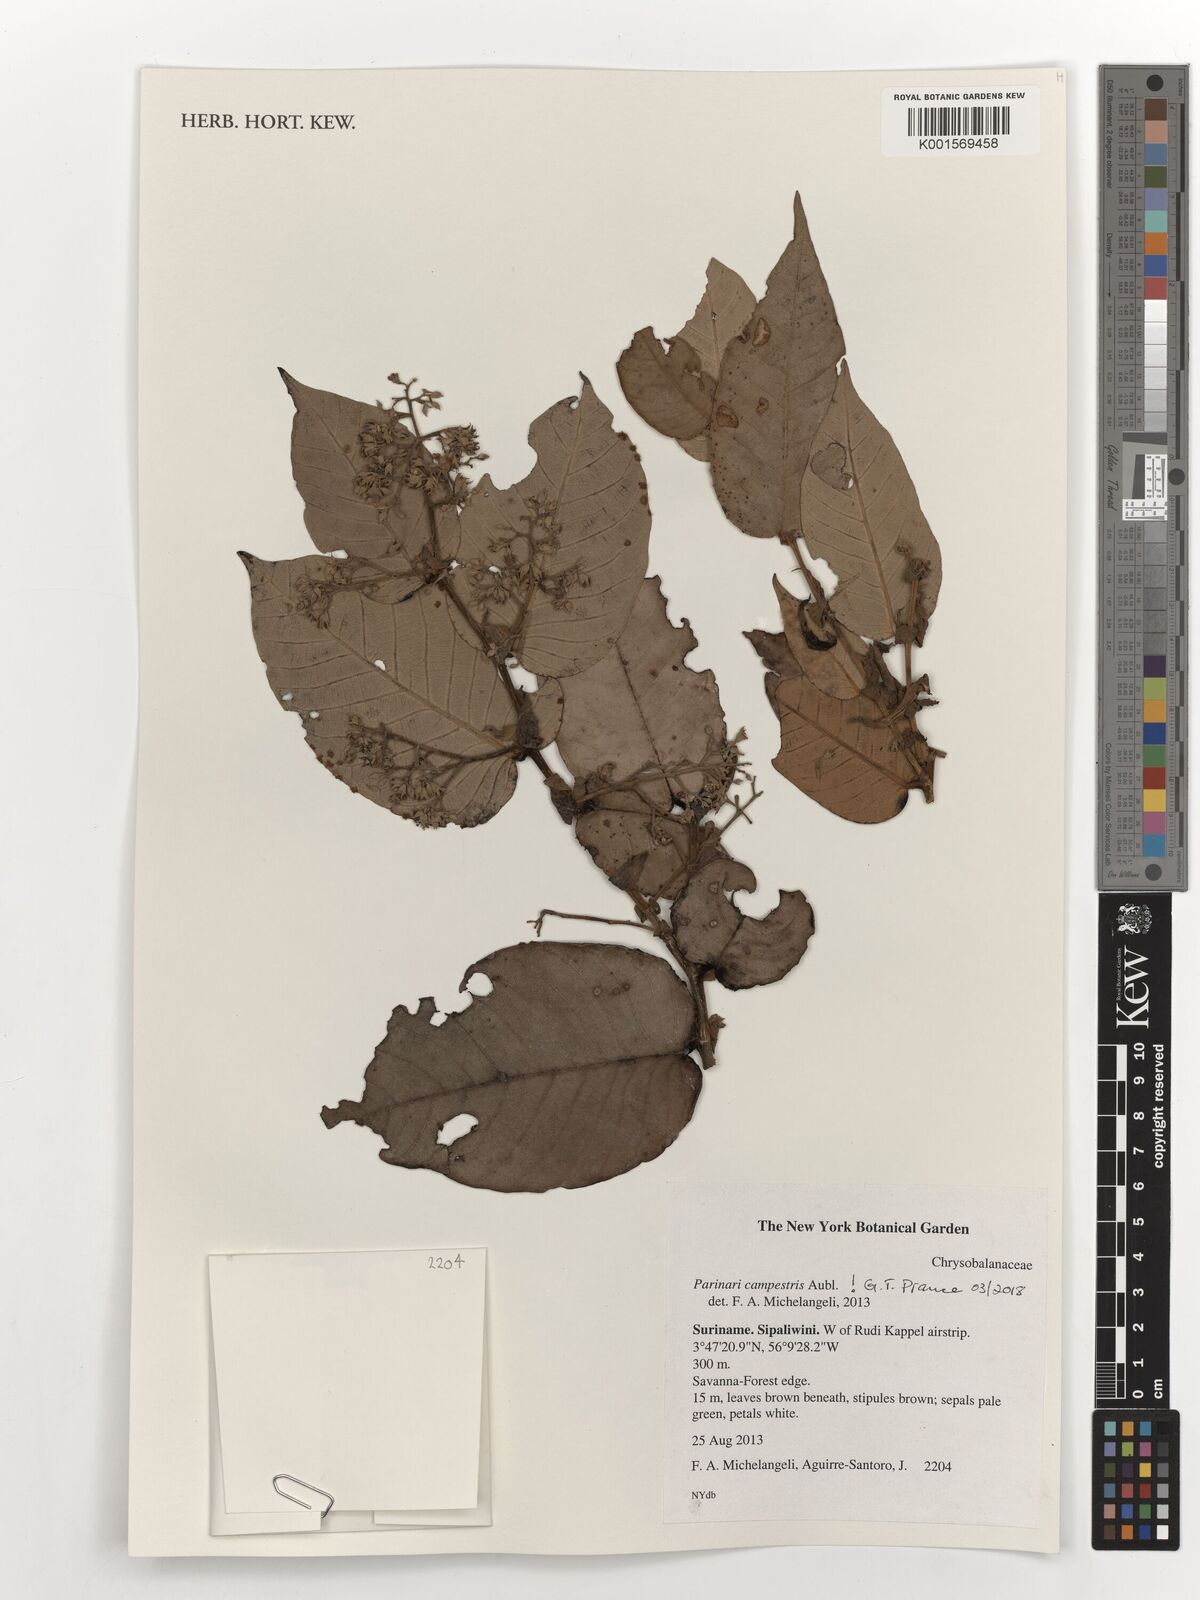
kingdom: Plantae
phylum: Tracheophyta
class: Magnoliopsida
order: Malpighiales
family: Chrysobalanaceae
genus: Parinari
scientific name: Parinari campestris
